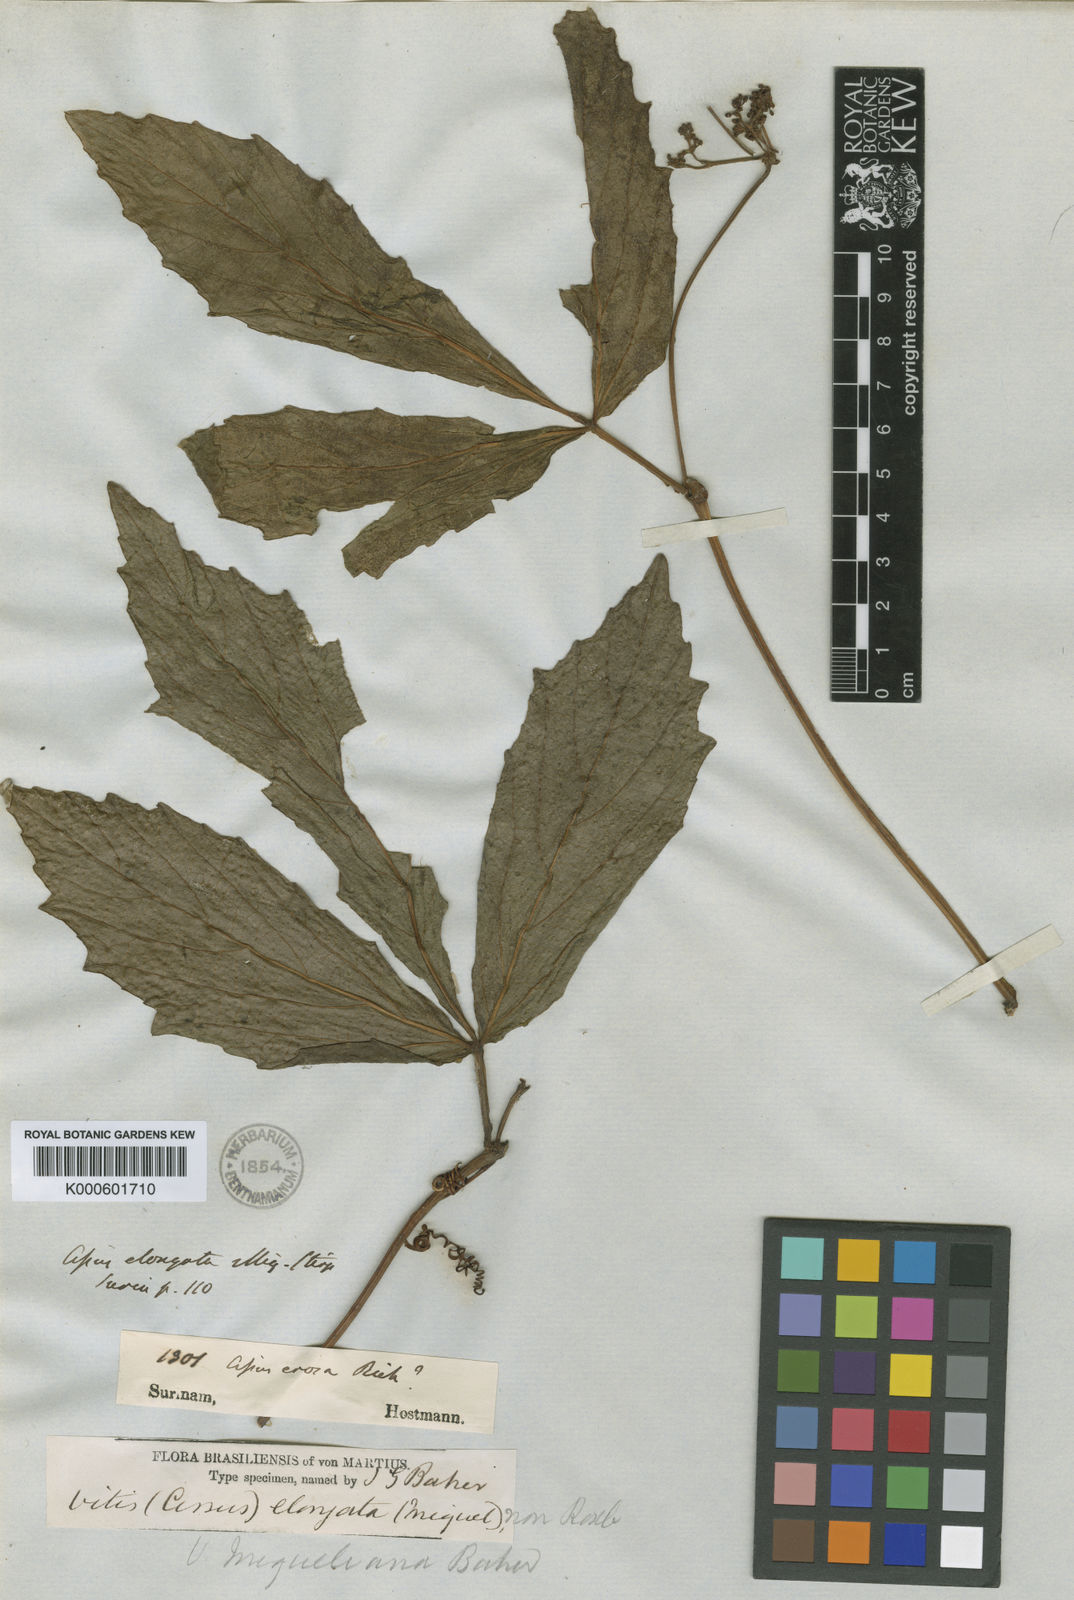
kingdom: Plantae
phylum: Tracheophyta
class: Magnoliopsida
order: Vitales
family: Vitaceae
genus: Cissus
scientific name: Cissus erosa
